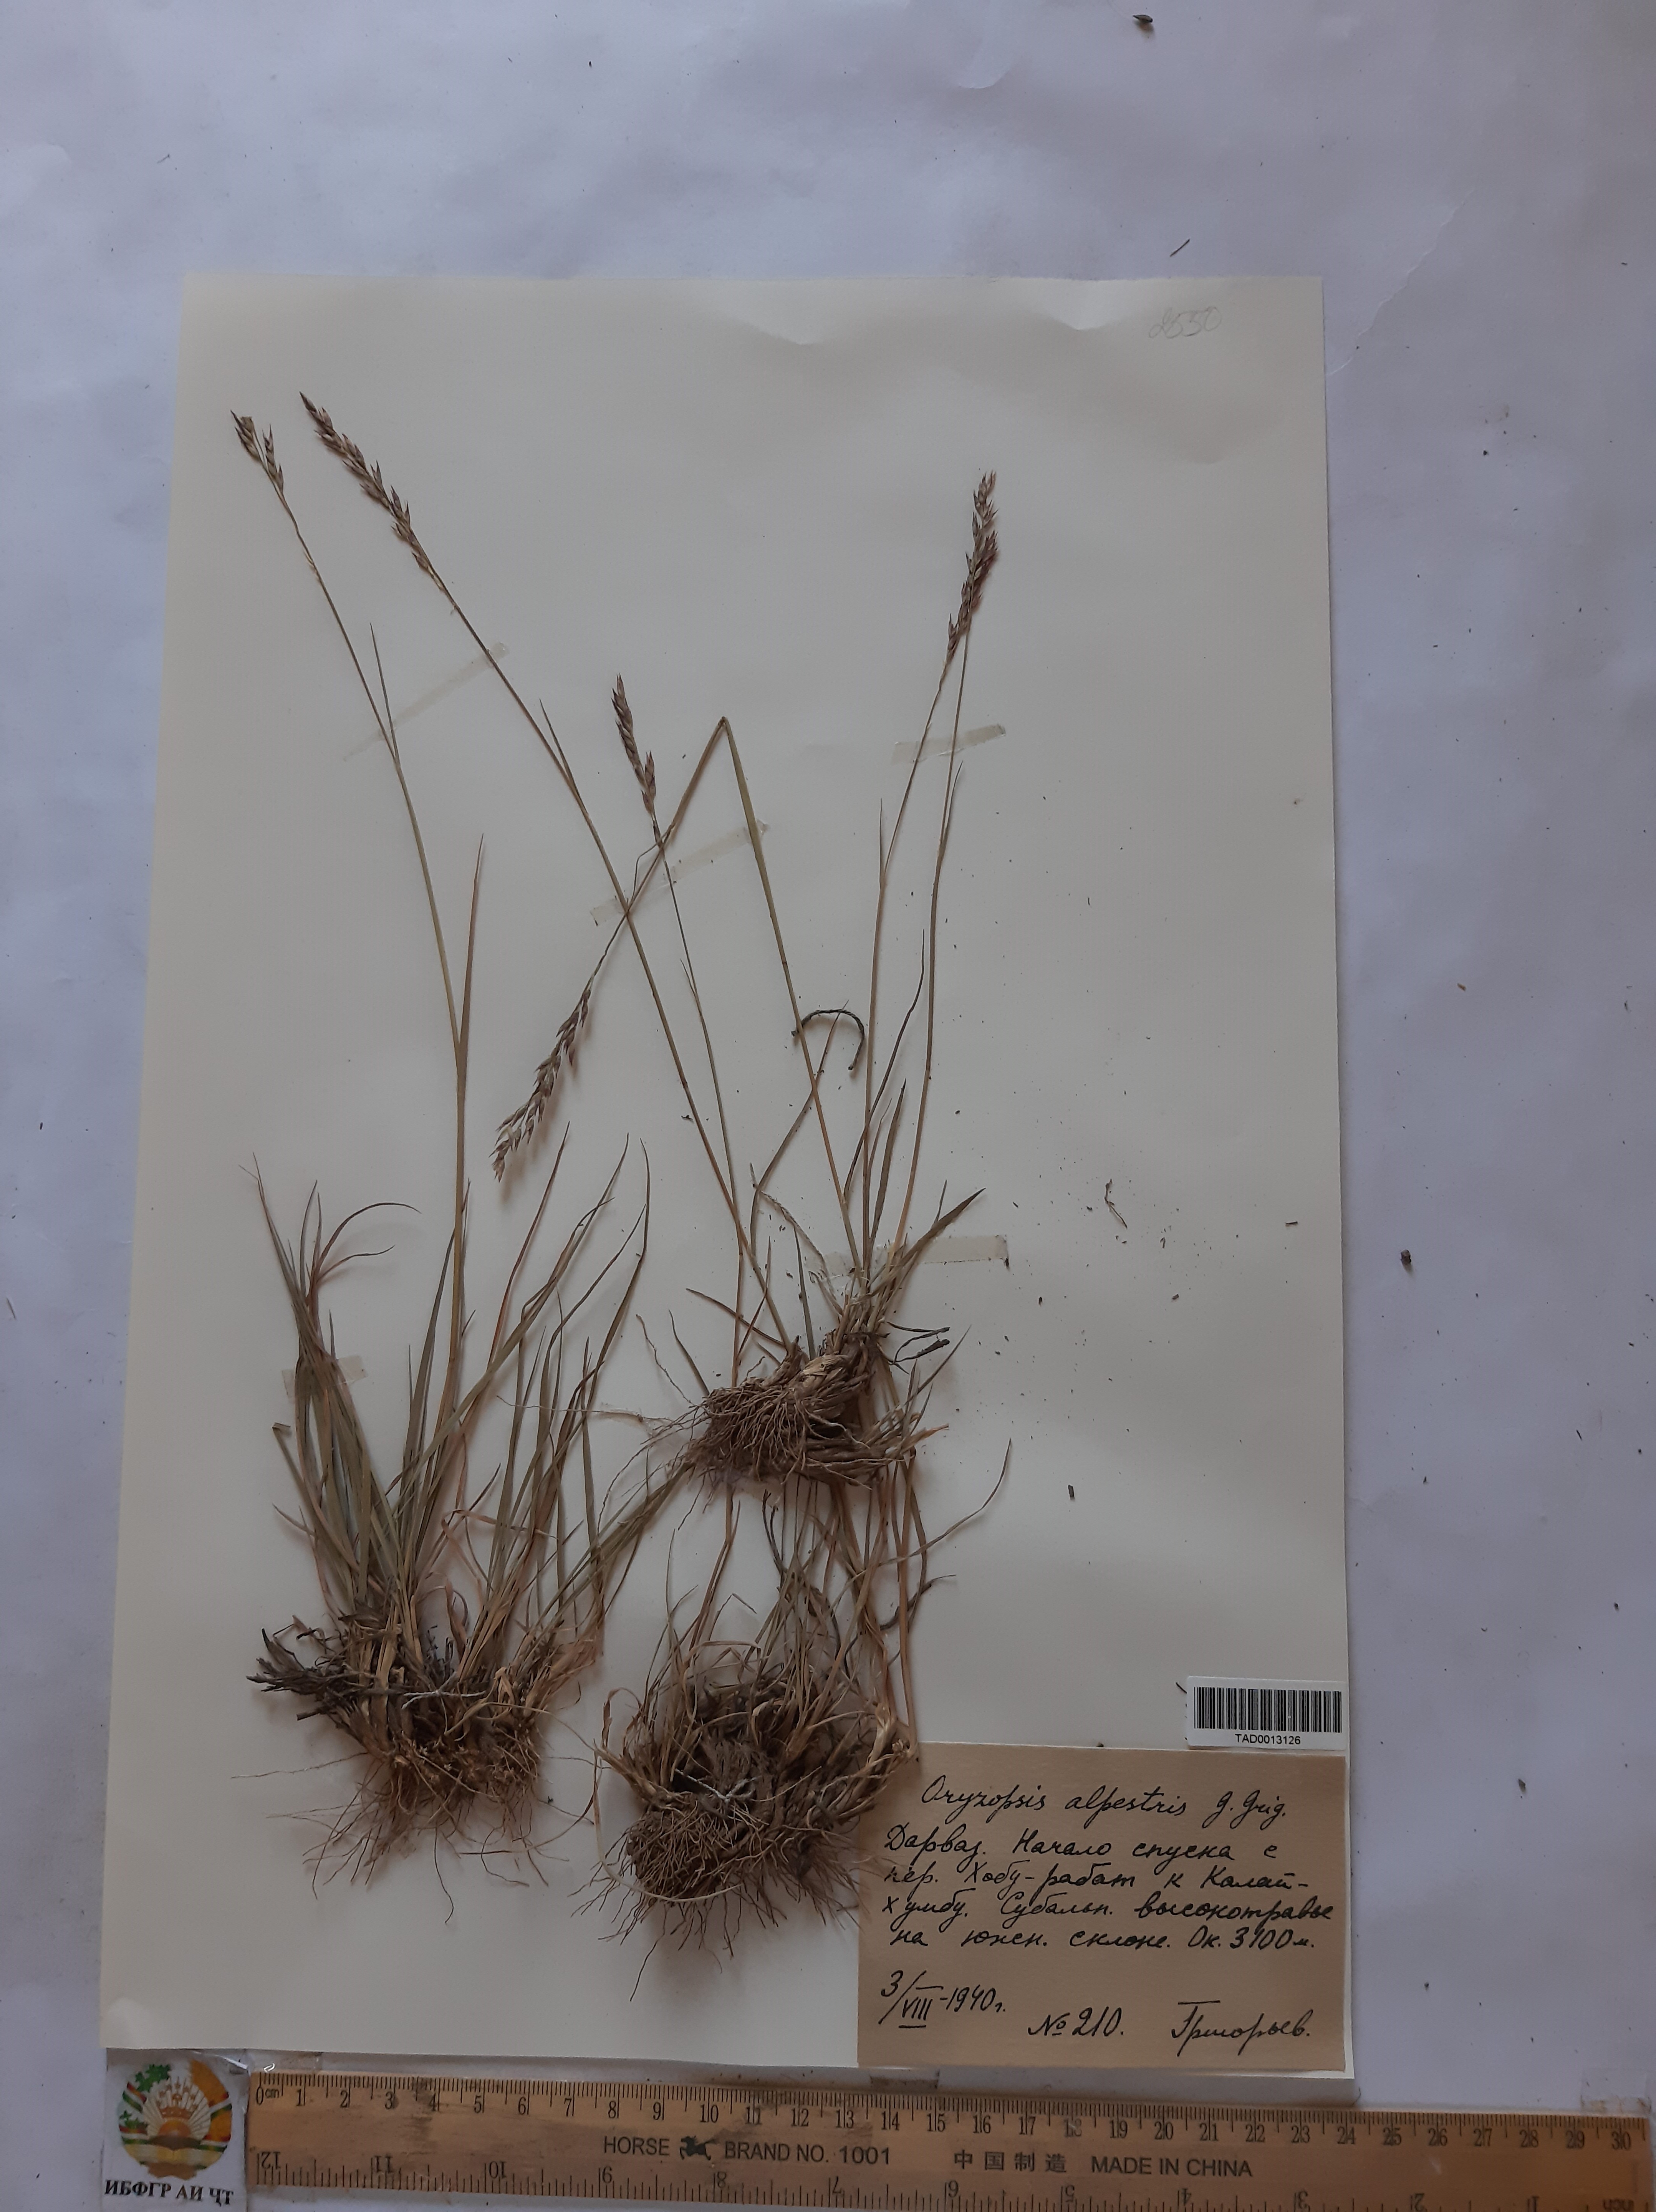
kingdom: Plantae
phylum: Tracheophyta
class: Liliopsida
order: Poales
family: Poaceae
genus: Piptatherum
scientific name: Piptatherum alpestre
